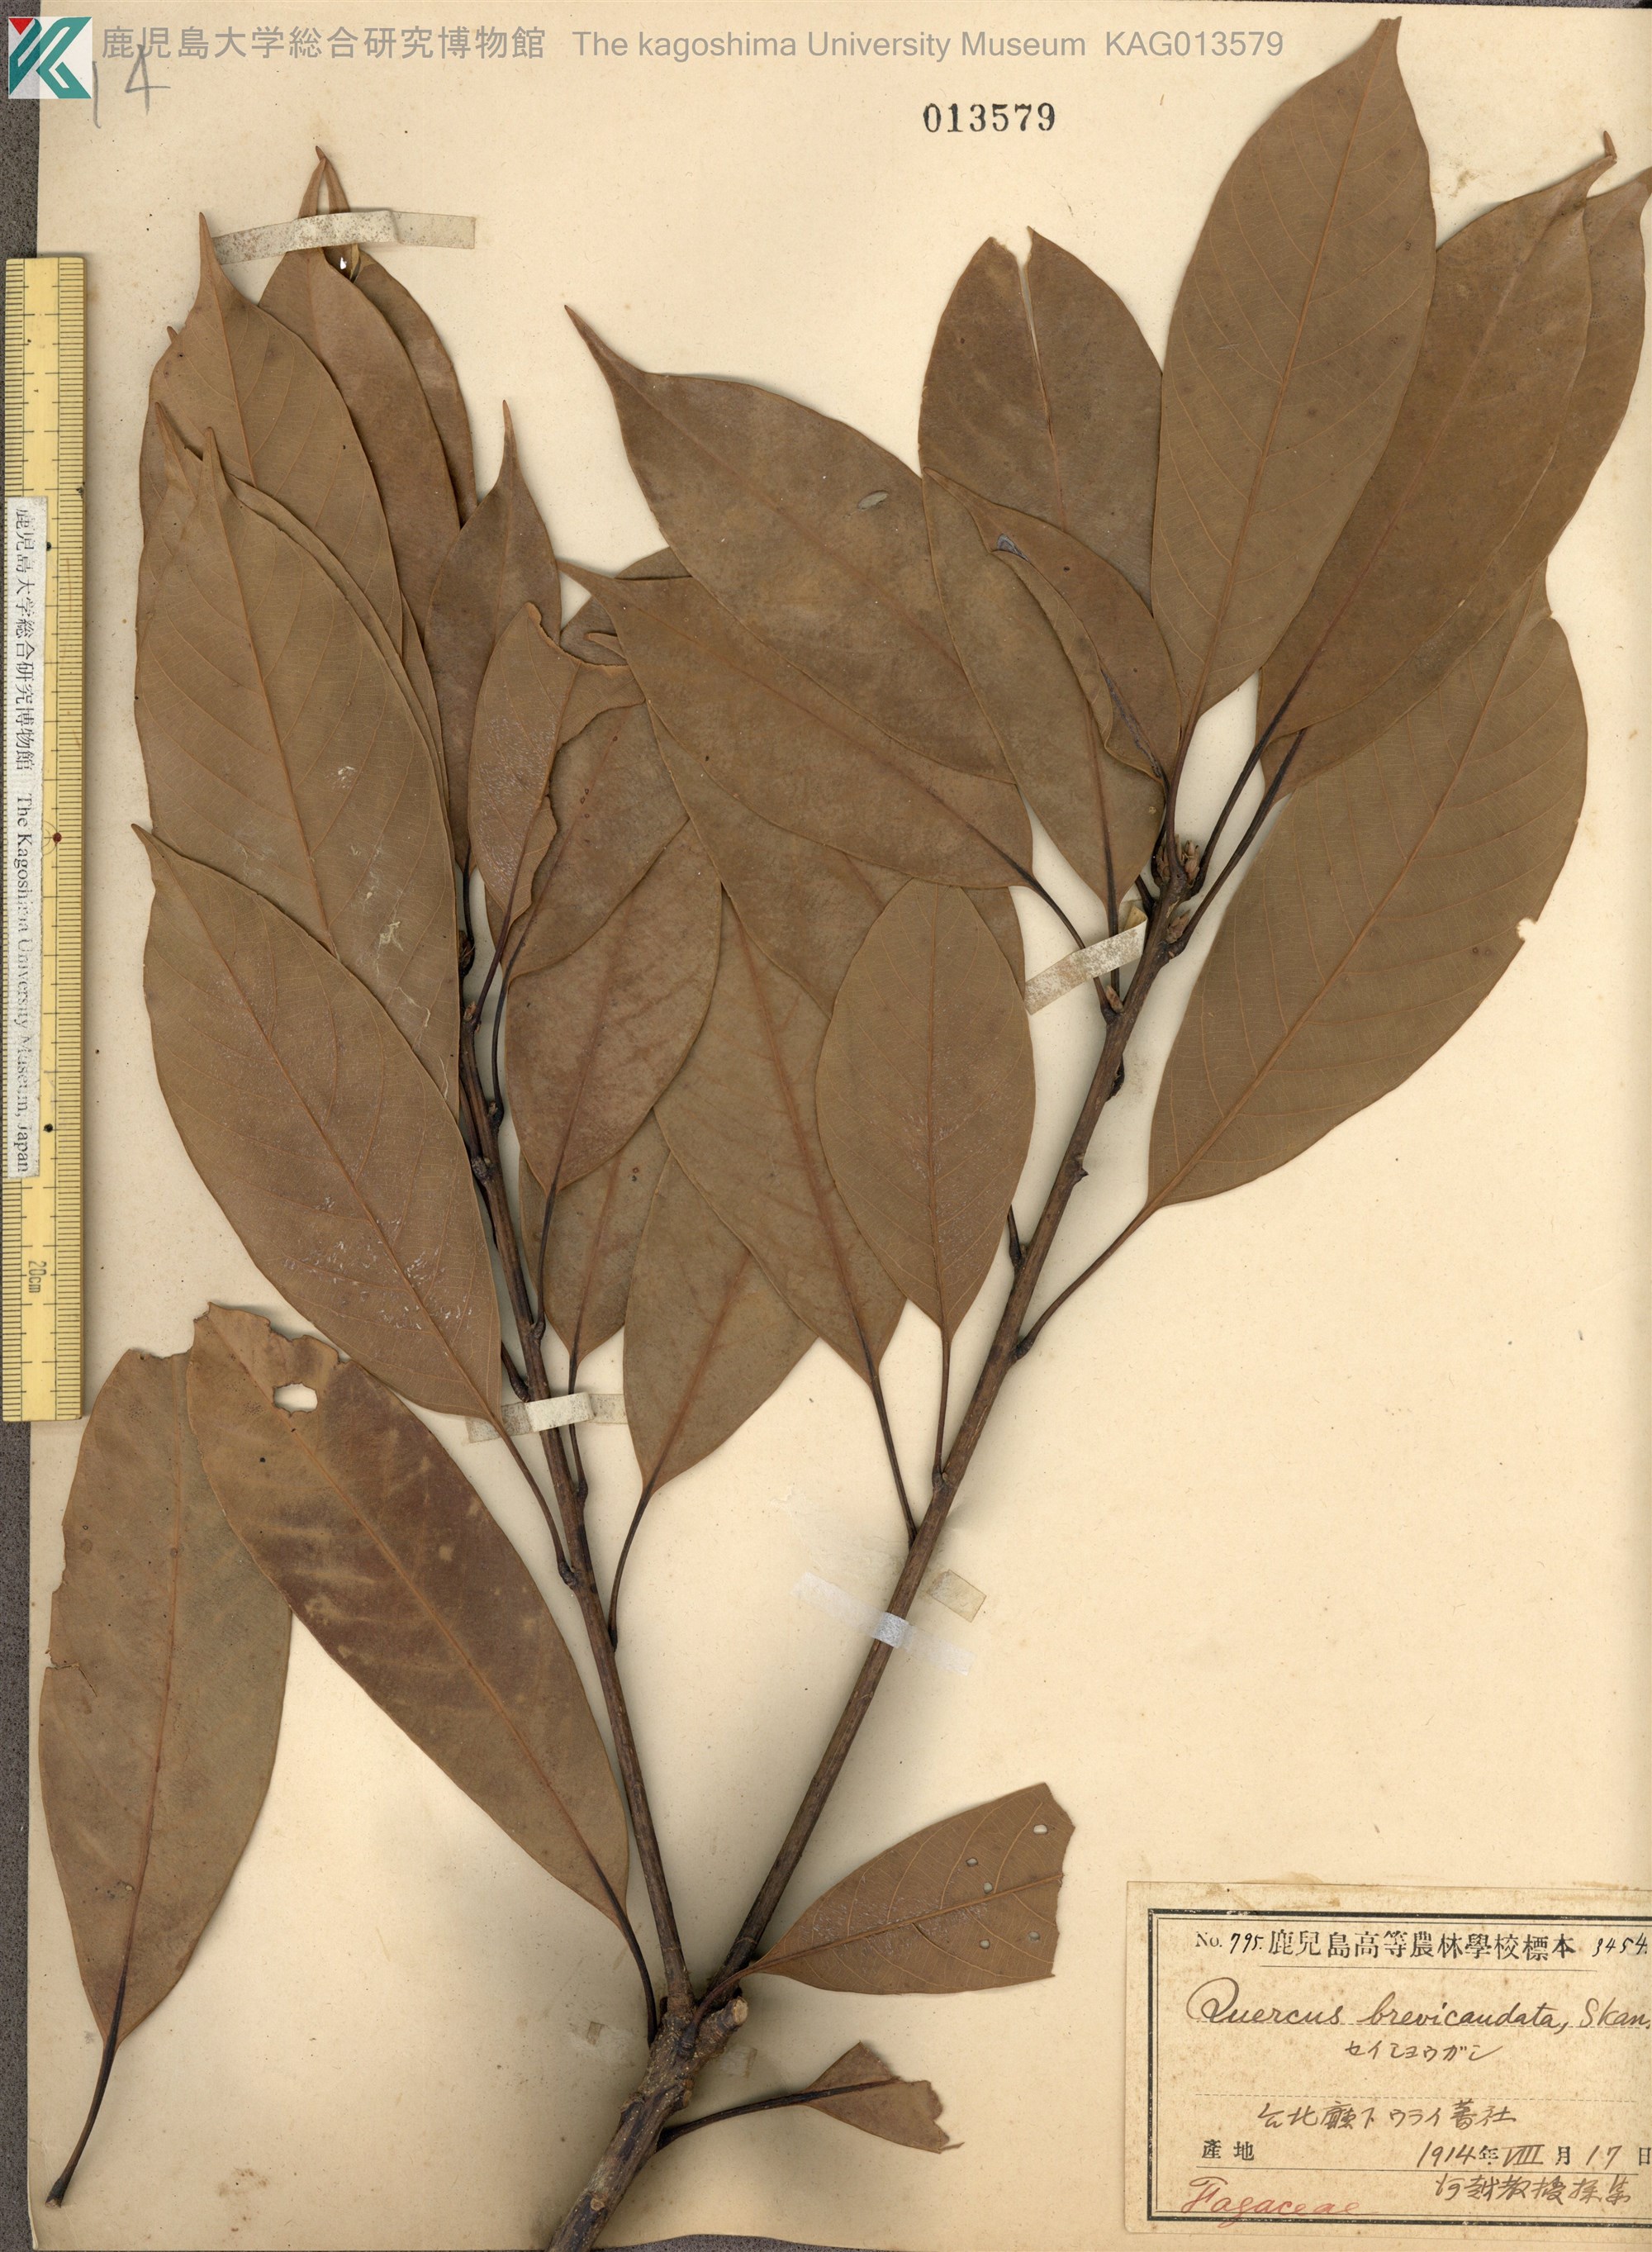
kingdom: Plantae
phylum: Tracheophyta
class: Magnoliopsida
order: Fagales
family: Fagaceae
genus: Lithocarpus
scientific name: Lithocarpus brevicaudatus
